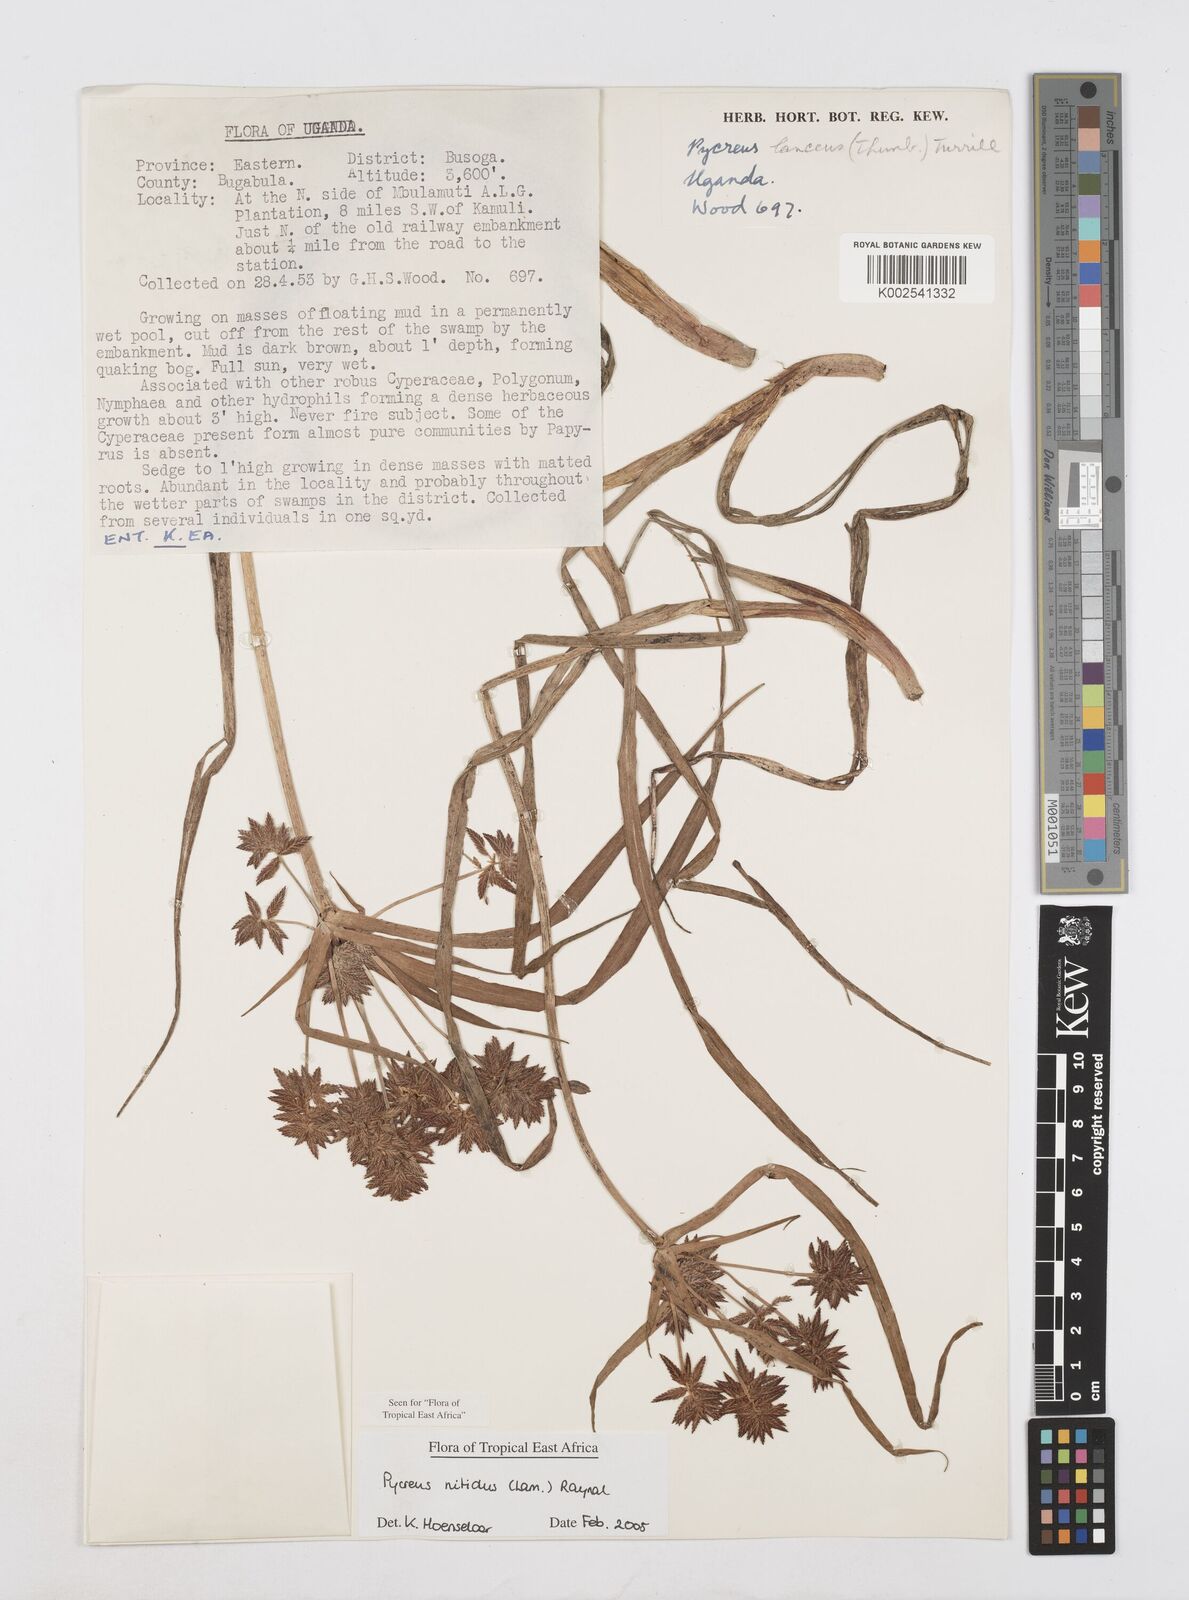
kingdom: Plantae
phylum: Tracheophyta
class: Liliopsida
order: Poales
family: Cyperaceae
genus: Cyperus
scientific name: Cyperus nitidus
